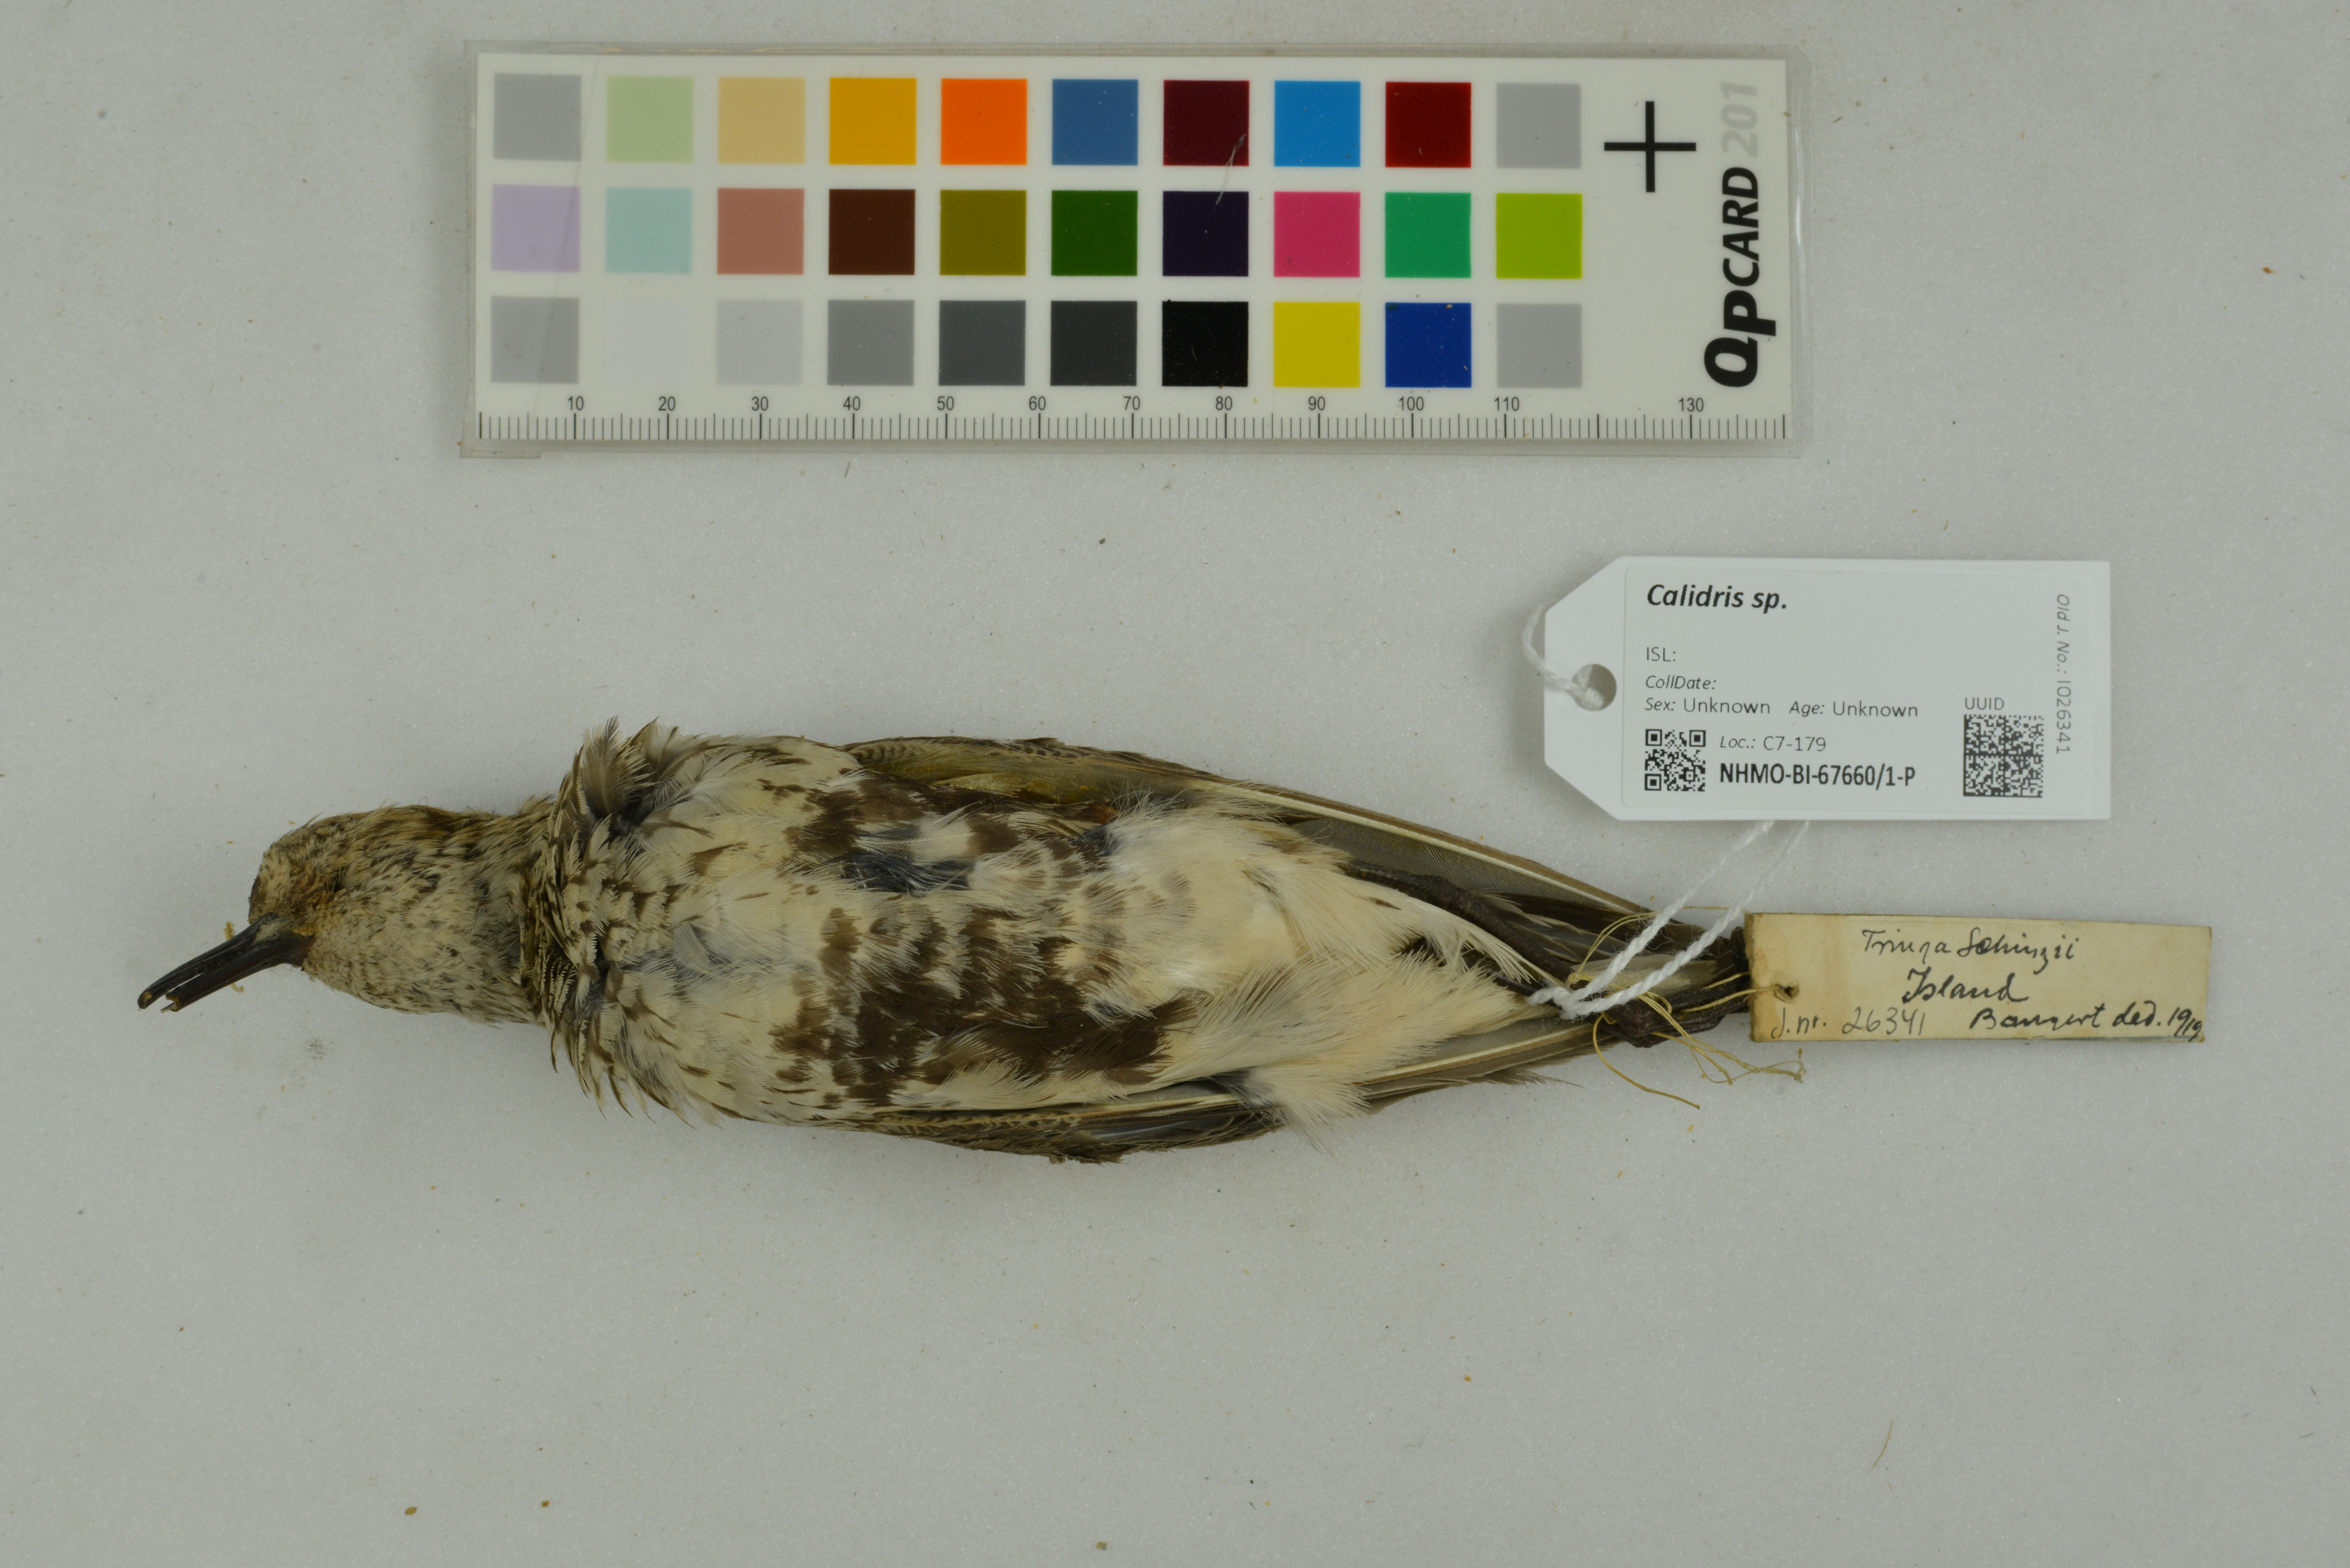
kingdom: Animalia
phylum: Chordata
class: Aves
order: Charadriiformes
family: Scolopacidae
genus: Calidris
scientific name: Calidris
